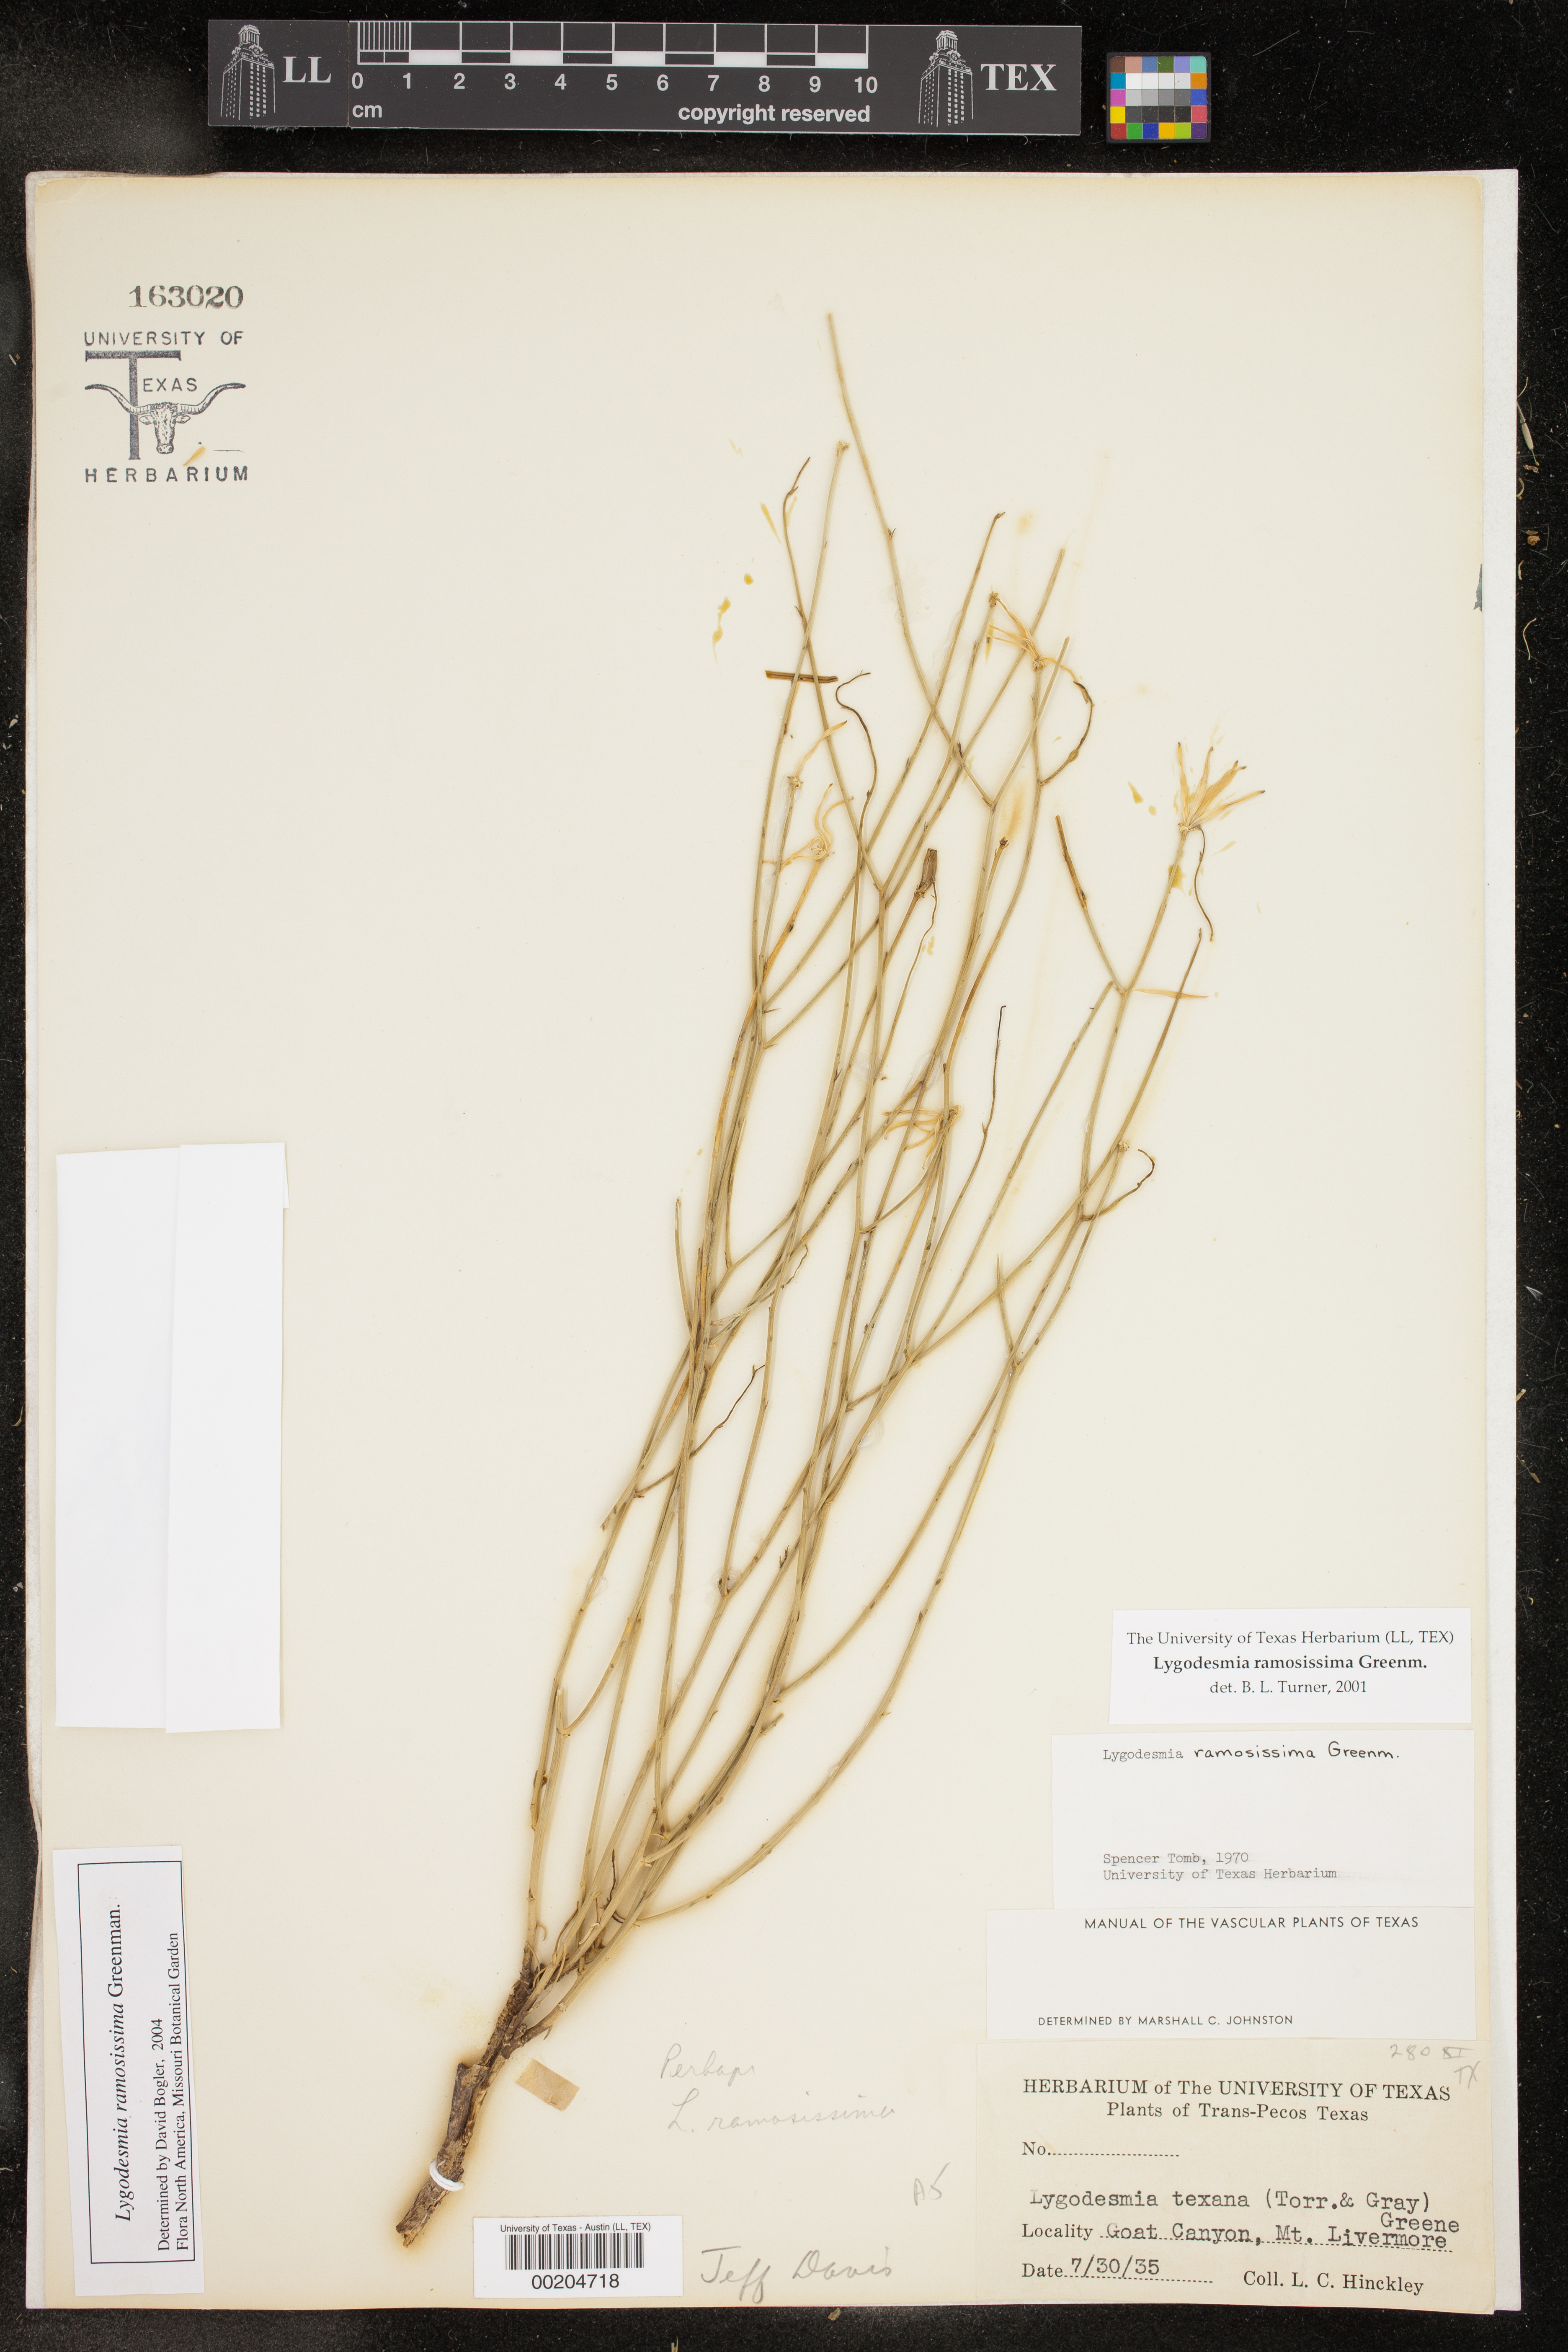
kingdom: Plantae
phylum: Tracheophyta
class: Magnoliopsida
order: Asterales
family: Asteraceae
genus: Lygodesmia
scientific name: Lygodesmia ramosissima
